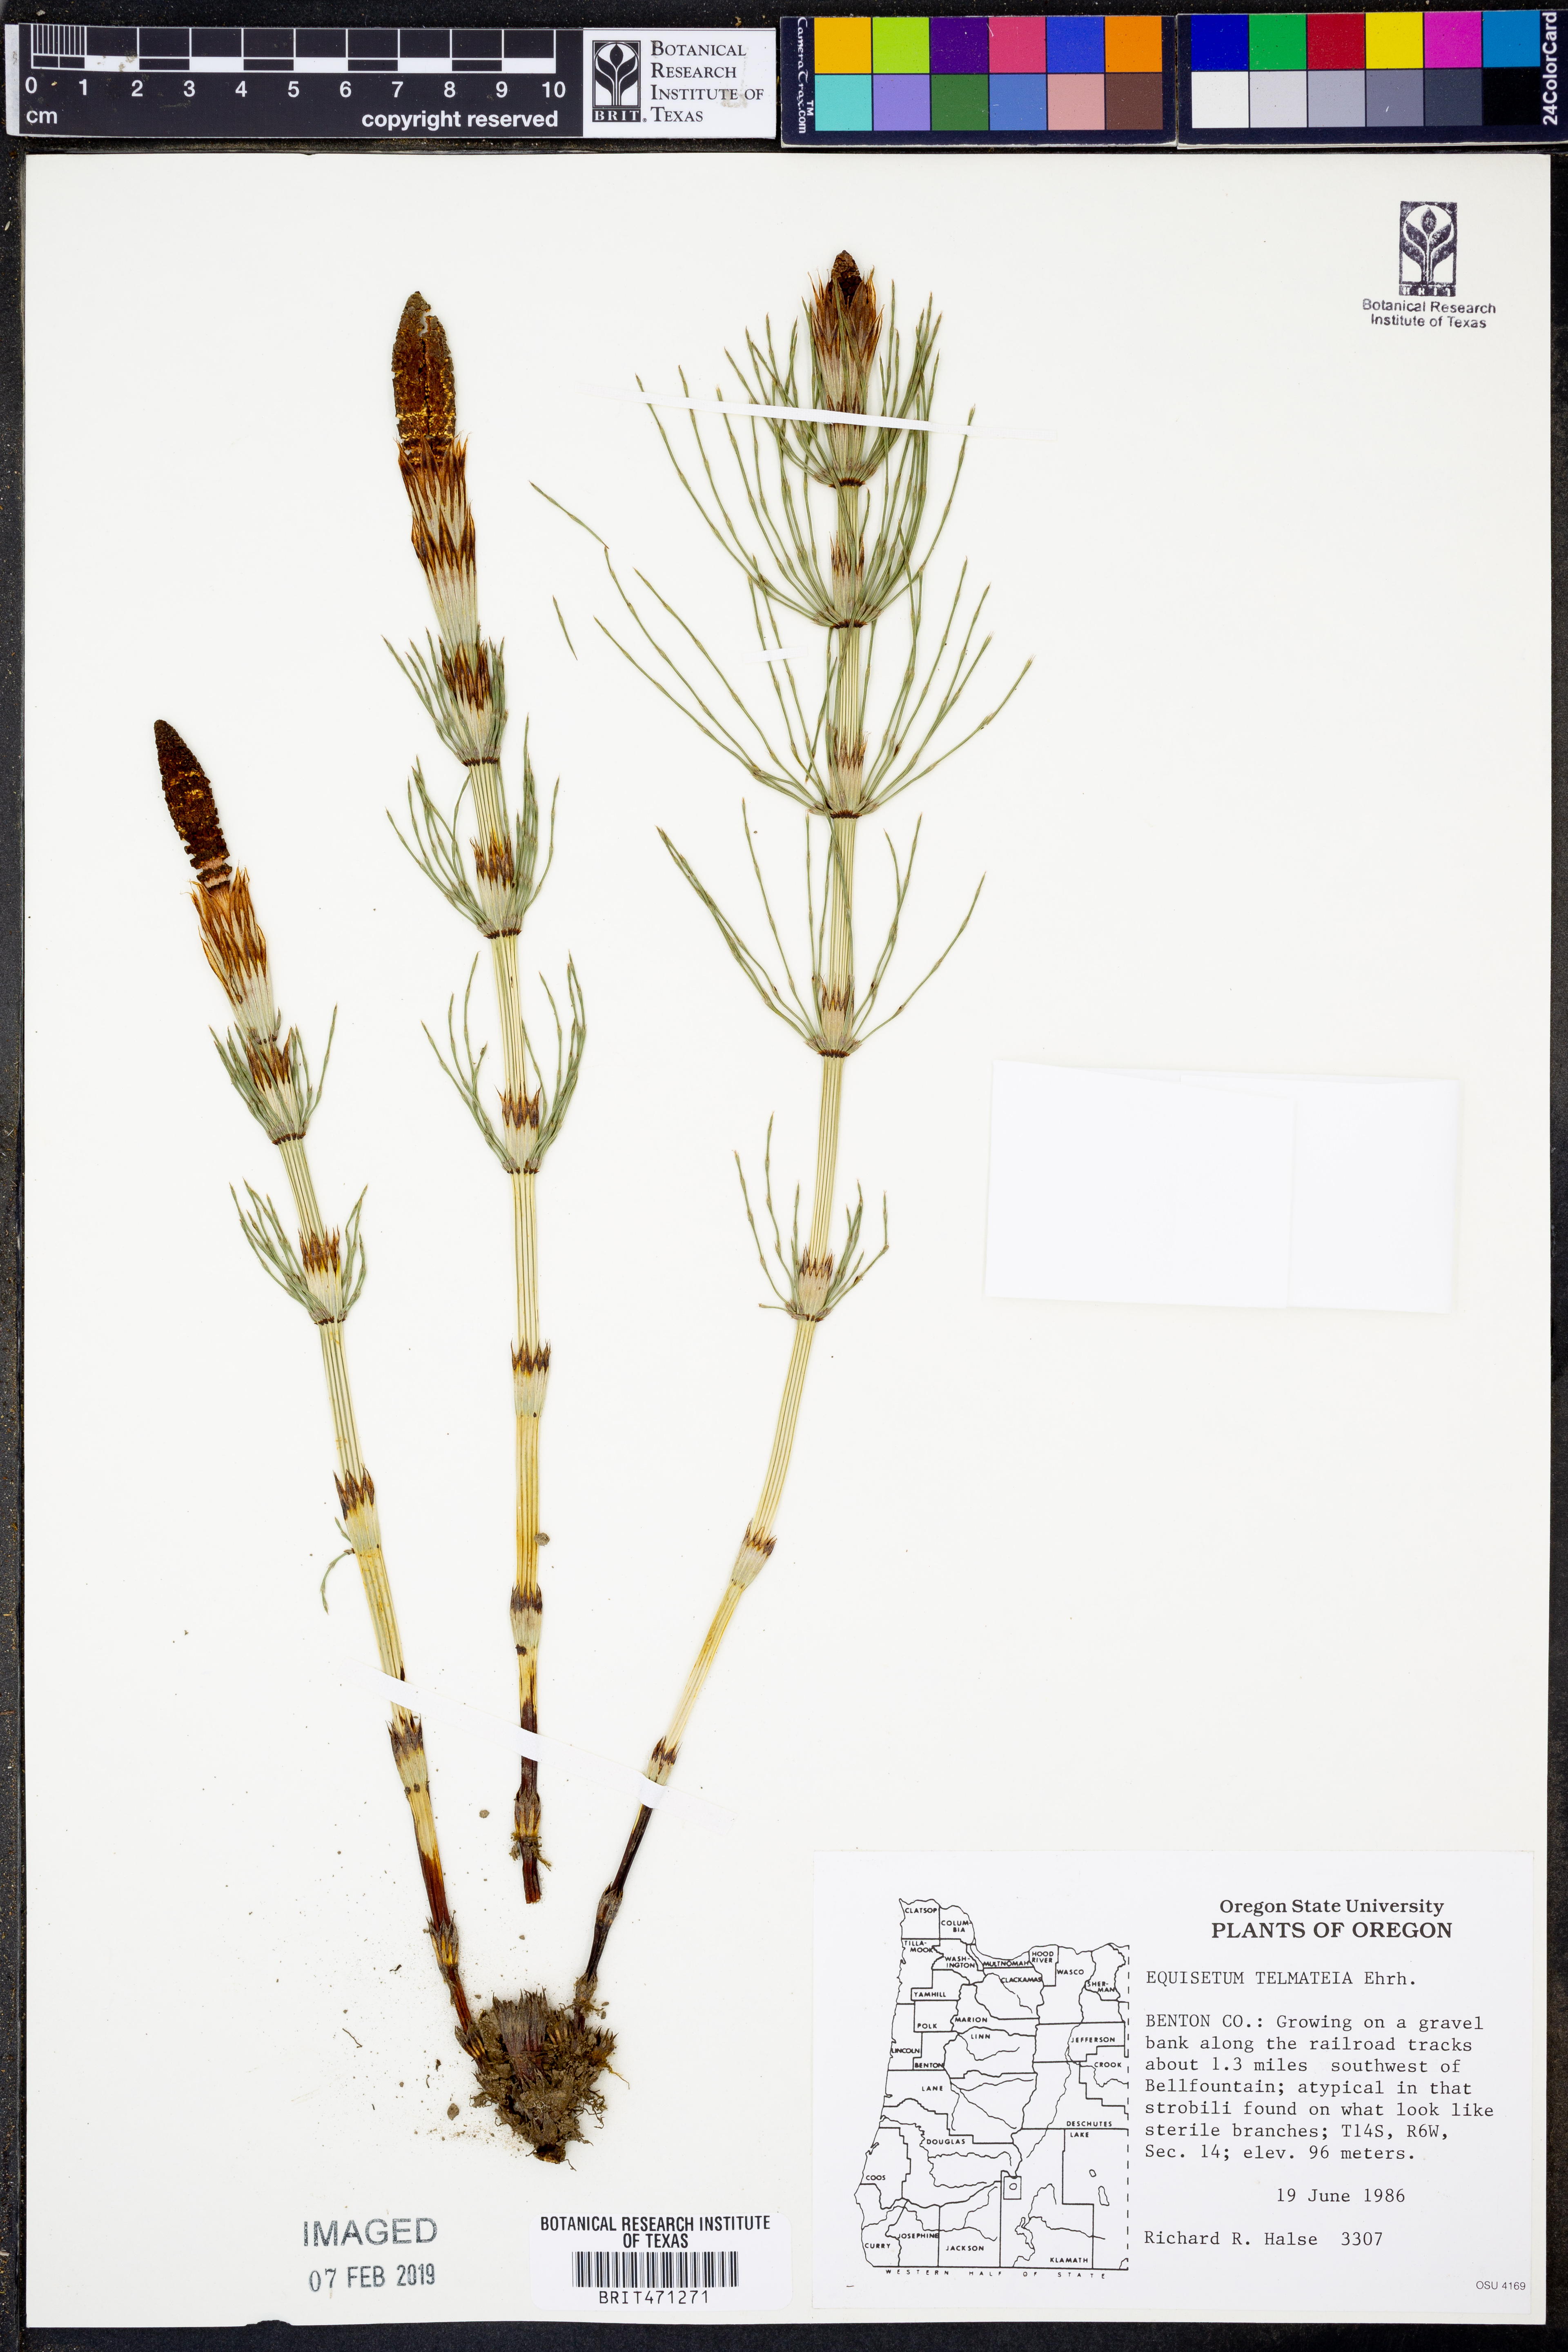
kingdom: Plantae
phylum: Tracheophyta
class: Polypodiopsida
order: Equisetales
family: Equisetaceae
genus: Equisetum
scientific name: Equisetum telmateia
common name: Great horsetail
